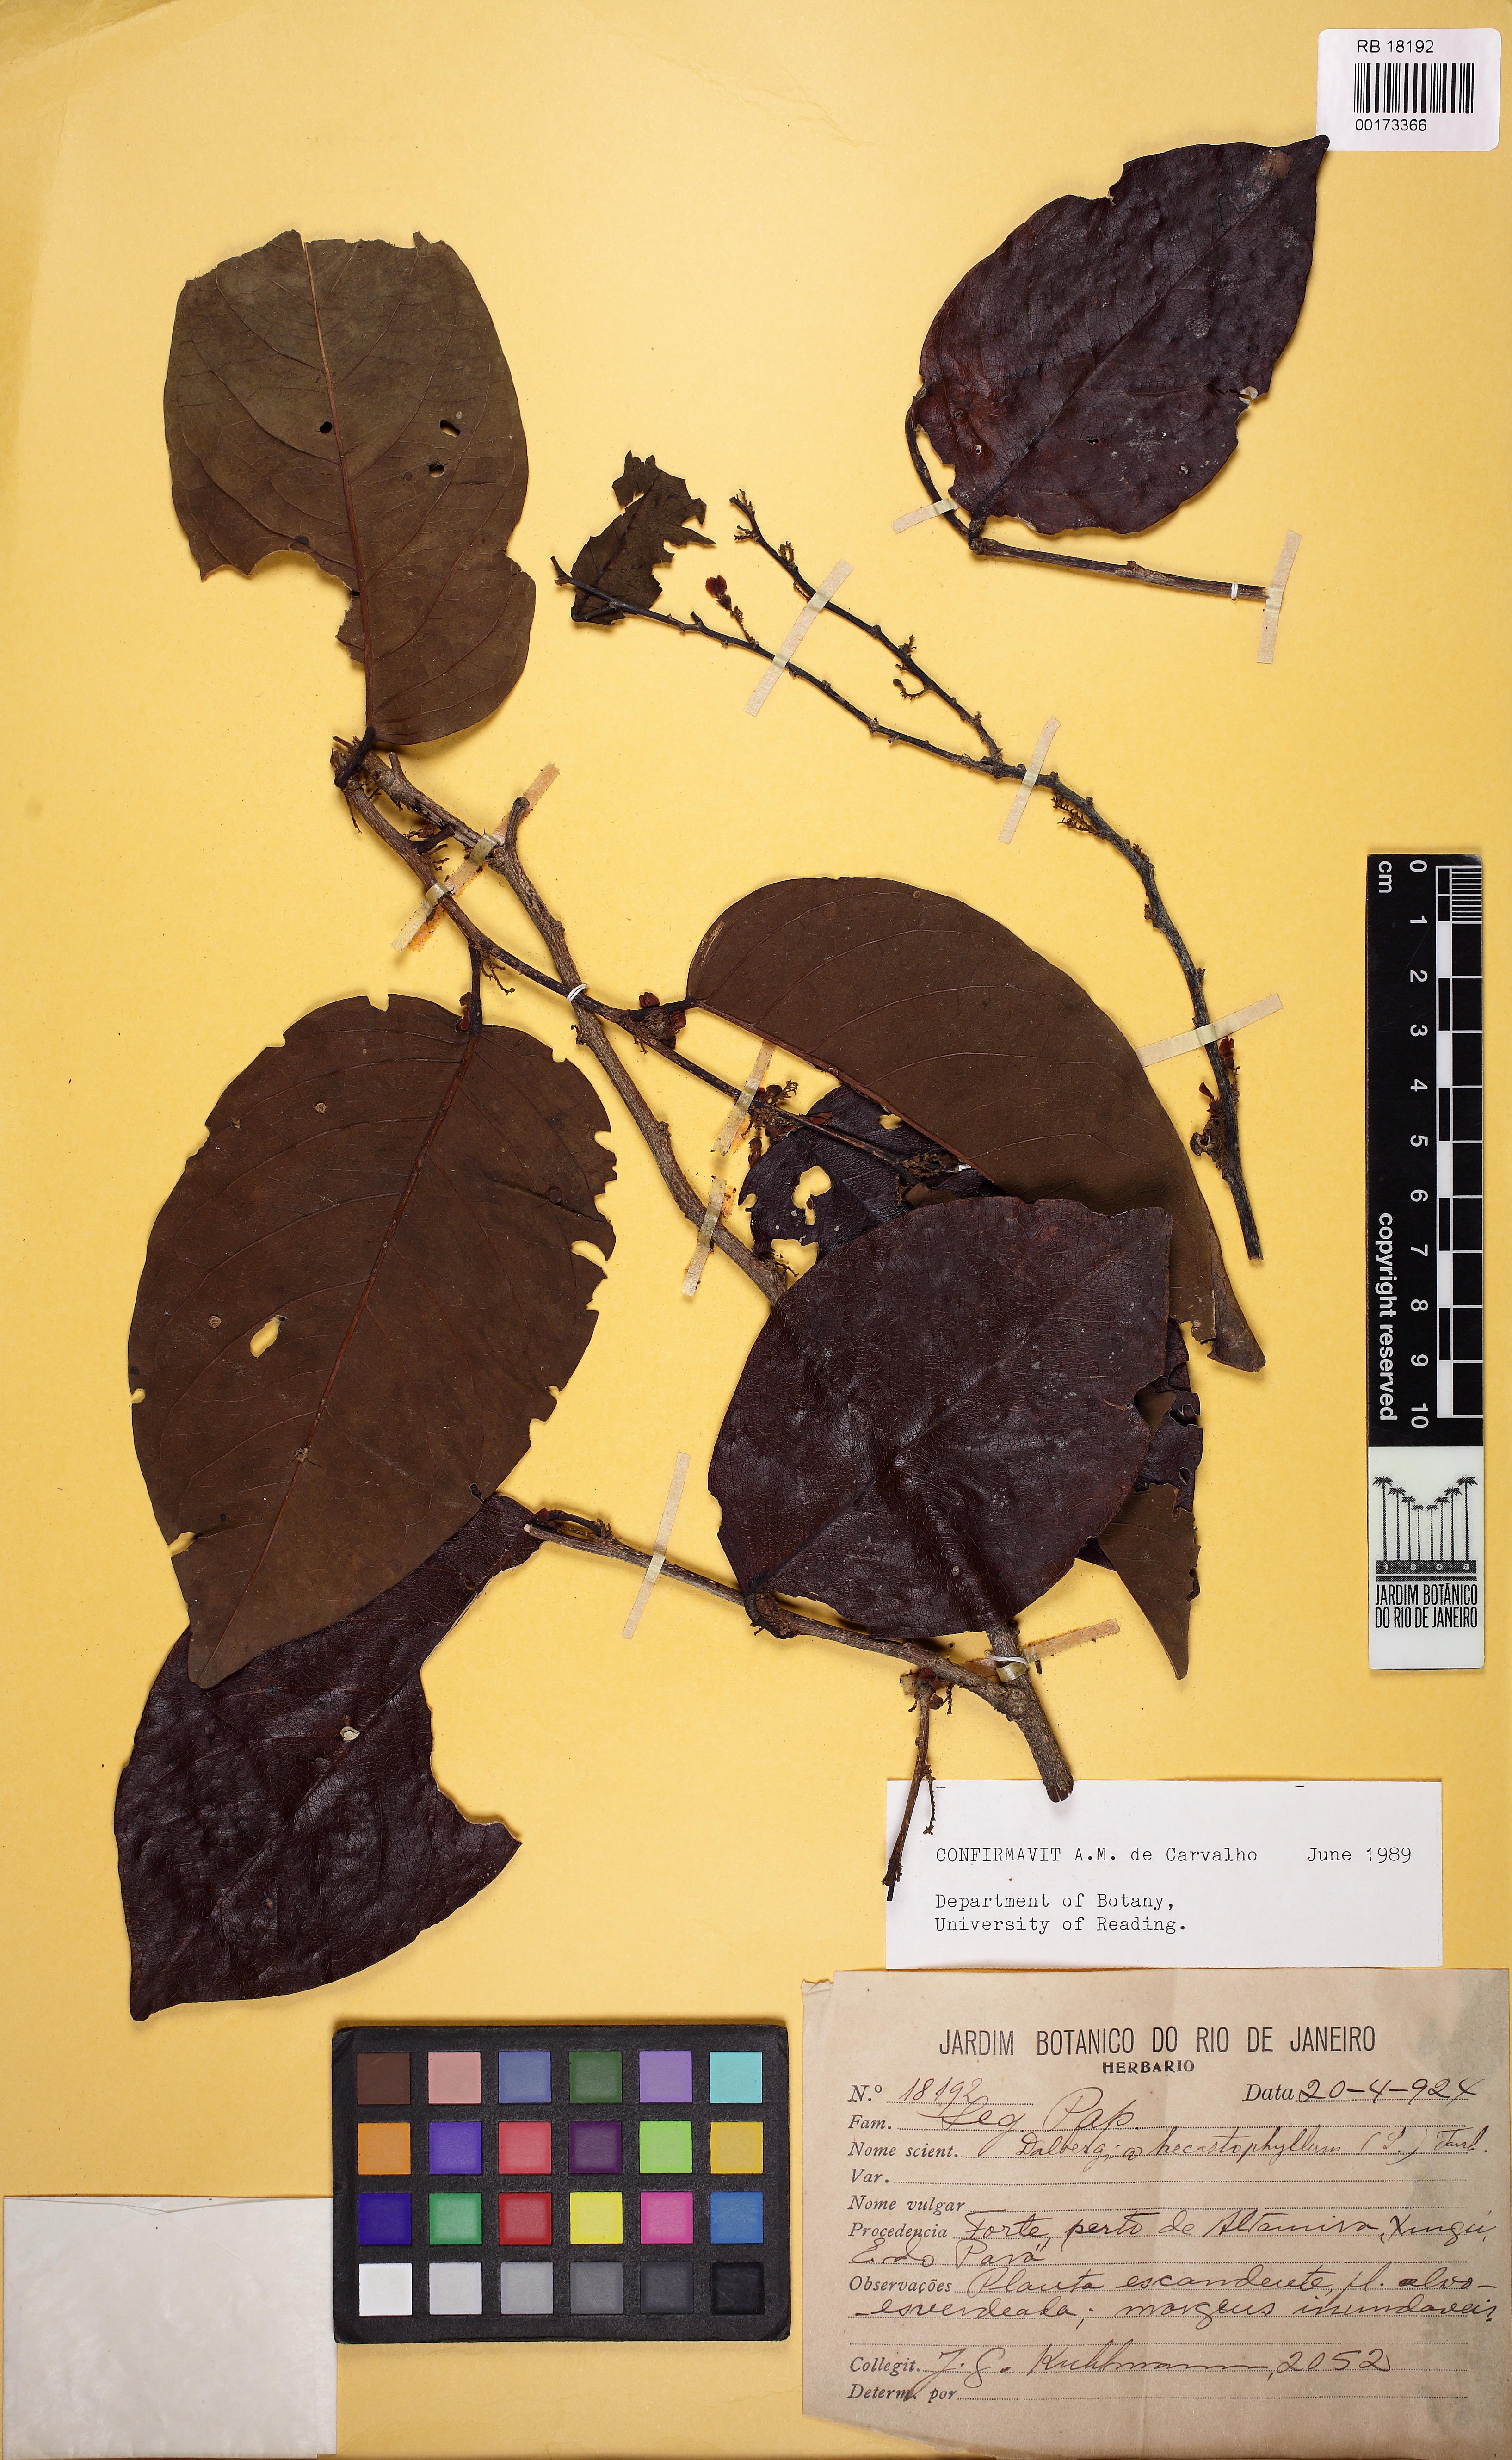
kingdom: Plantae
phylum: Tracheophyta
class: Magnoliopsida
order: Fabales
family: Fabaceae
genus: Dalbergia
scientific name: Dalbergia ecastaphyllum
